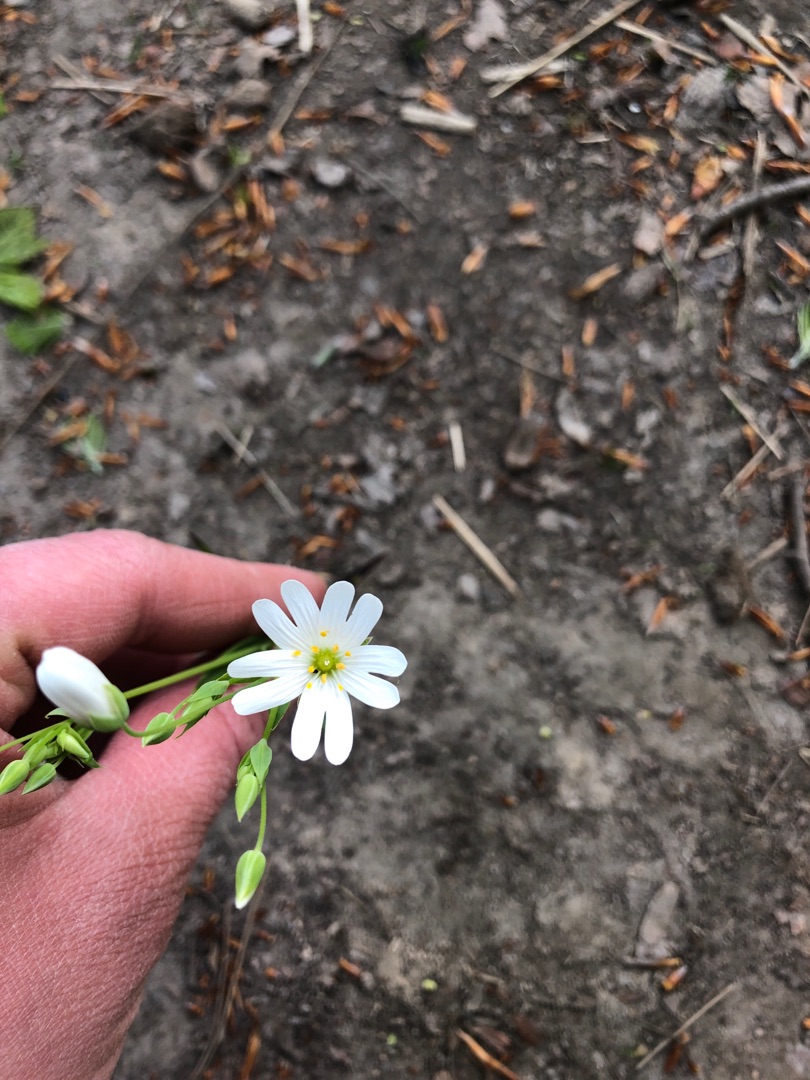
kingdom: Plantae
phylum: Tracheophyta
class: Magnoliopsida
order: Caryophyllales
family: Caryophyllaceae
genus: Rabelera
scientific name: Rabelera holostea
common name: Stor fladstjerne
